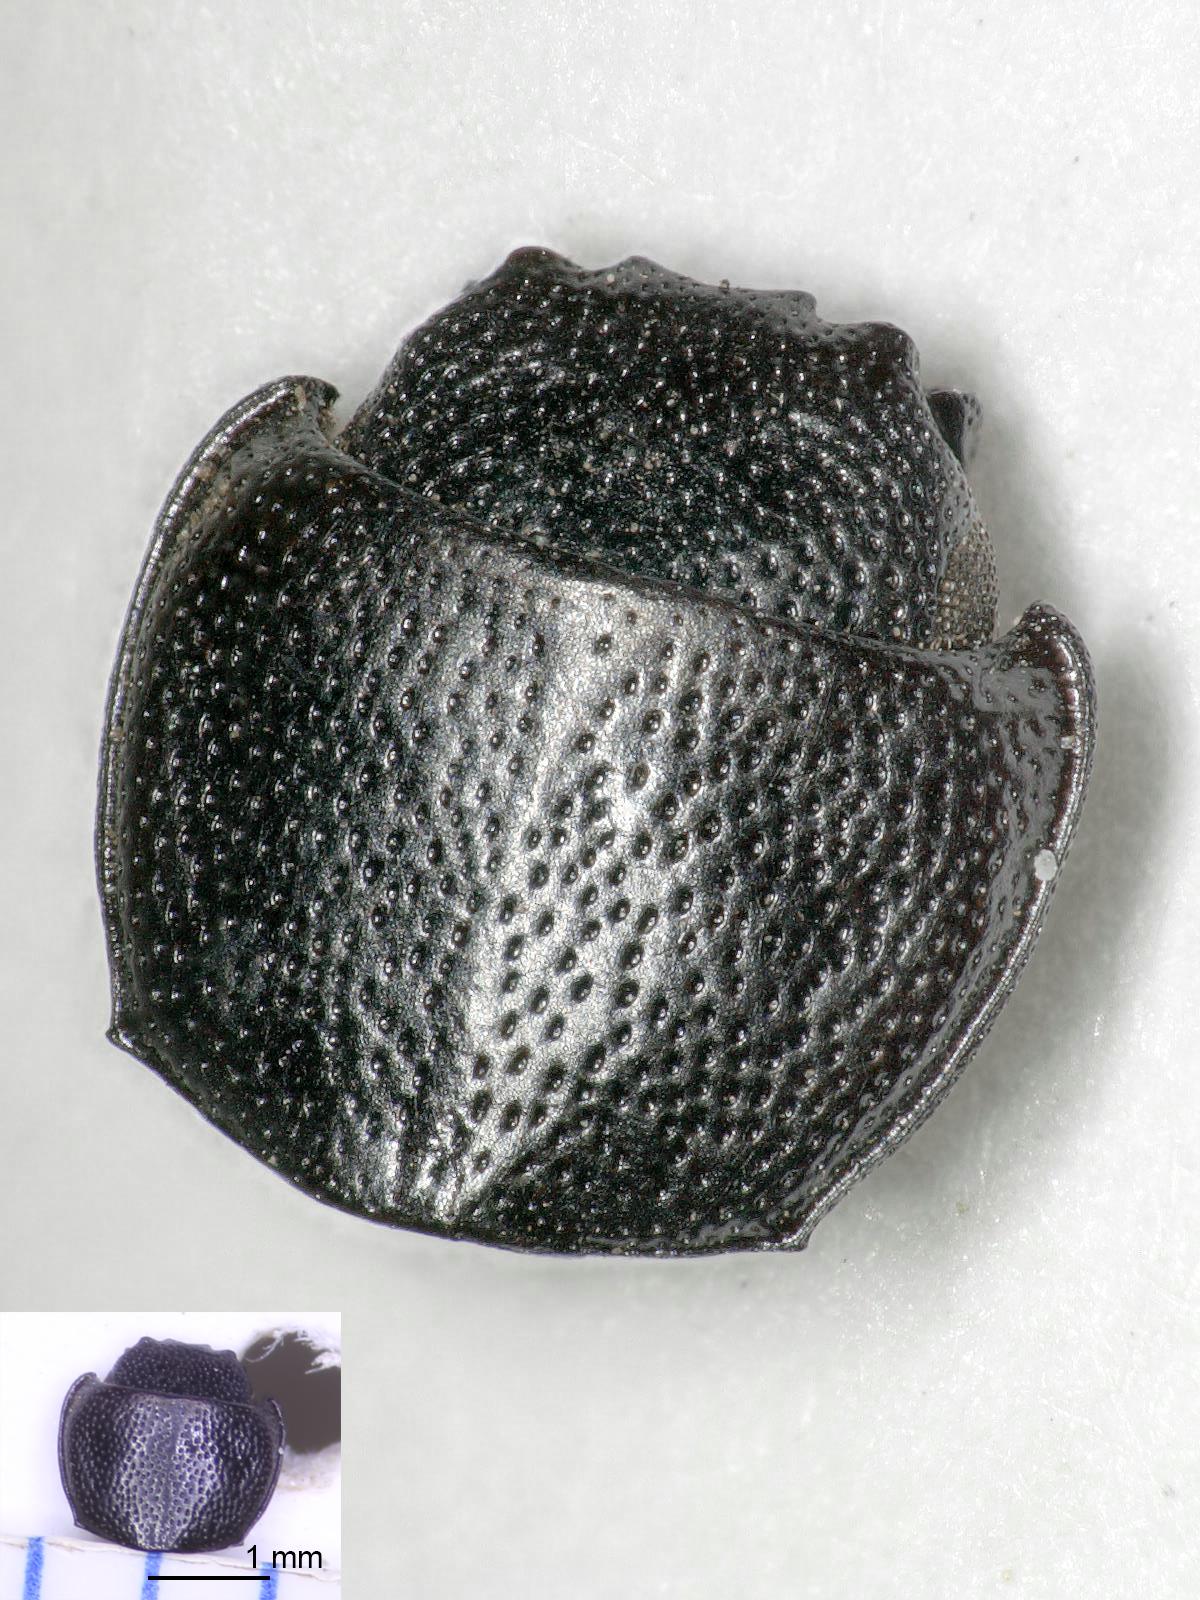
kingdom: Animalia
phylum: Arthropoda
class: Insecta
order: Coleoptera
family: Carabidae
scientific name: Carabidae
